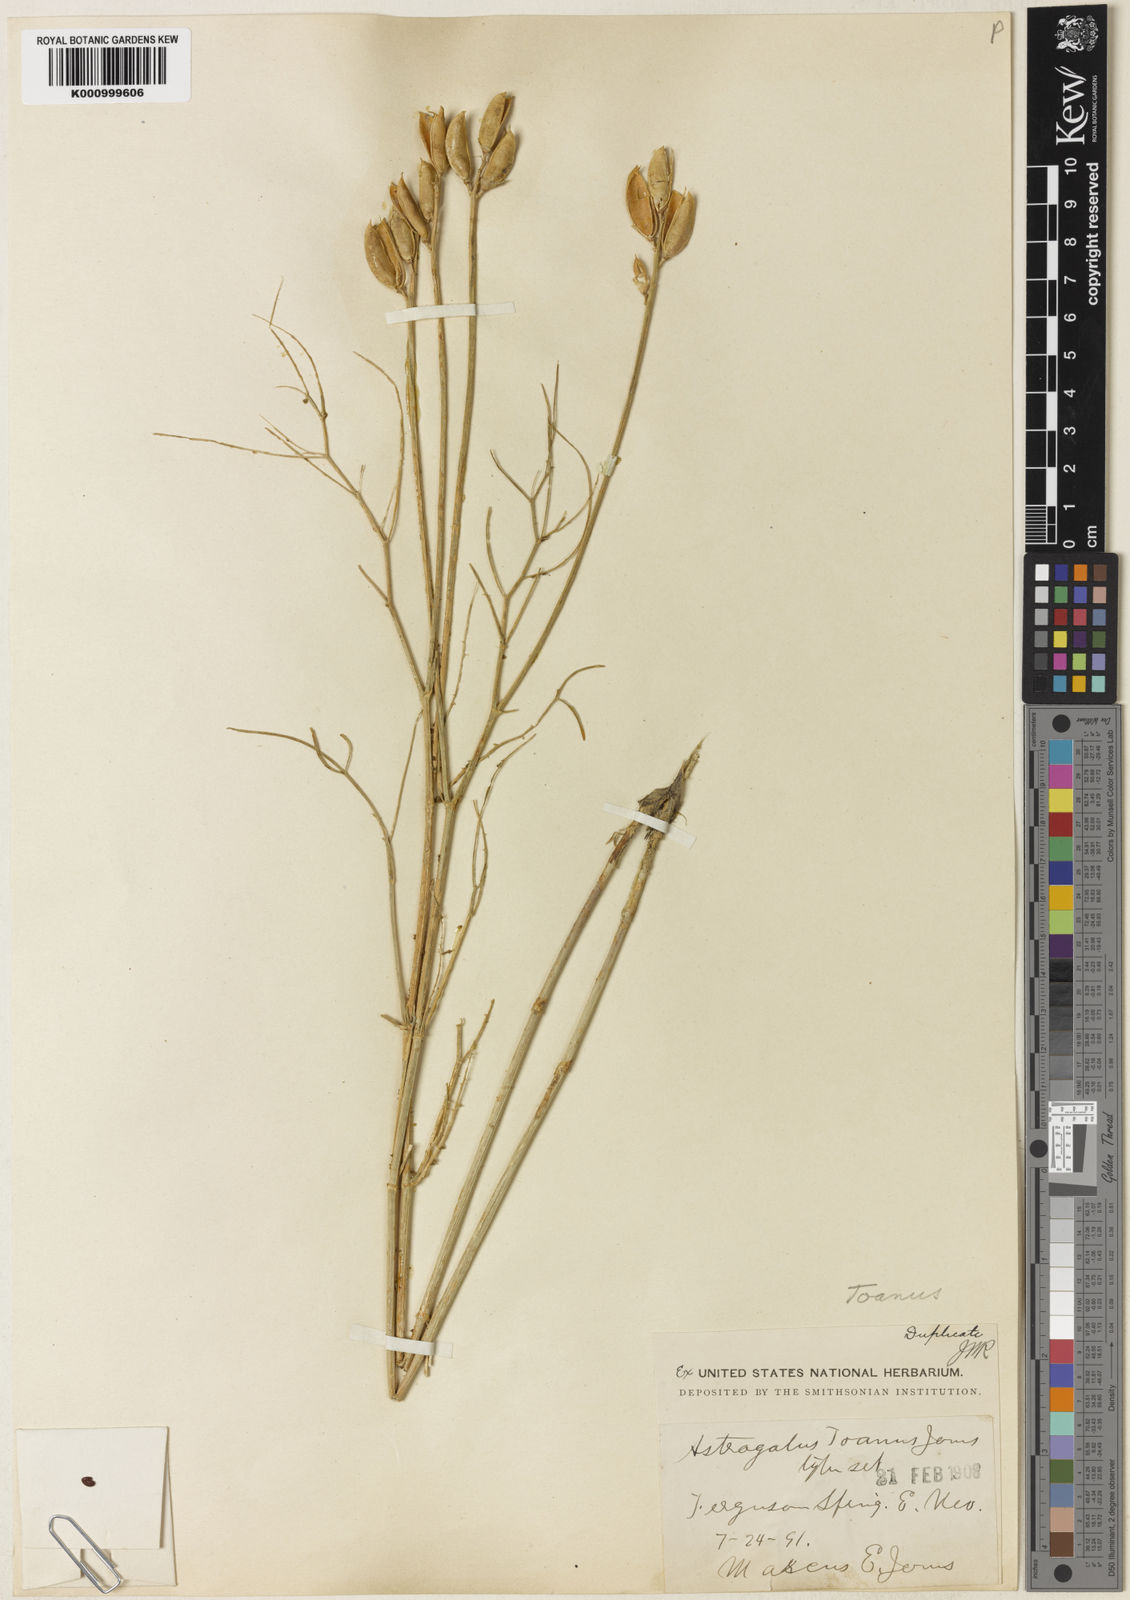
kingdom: Plantae
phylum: Tracheophyta
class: Magnoliopsida
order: Fabales
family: Fabaceae
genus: Astragalus
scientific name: Astragalus toanus
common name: Toano milk-vetch
